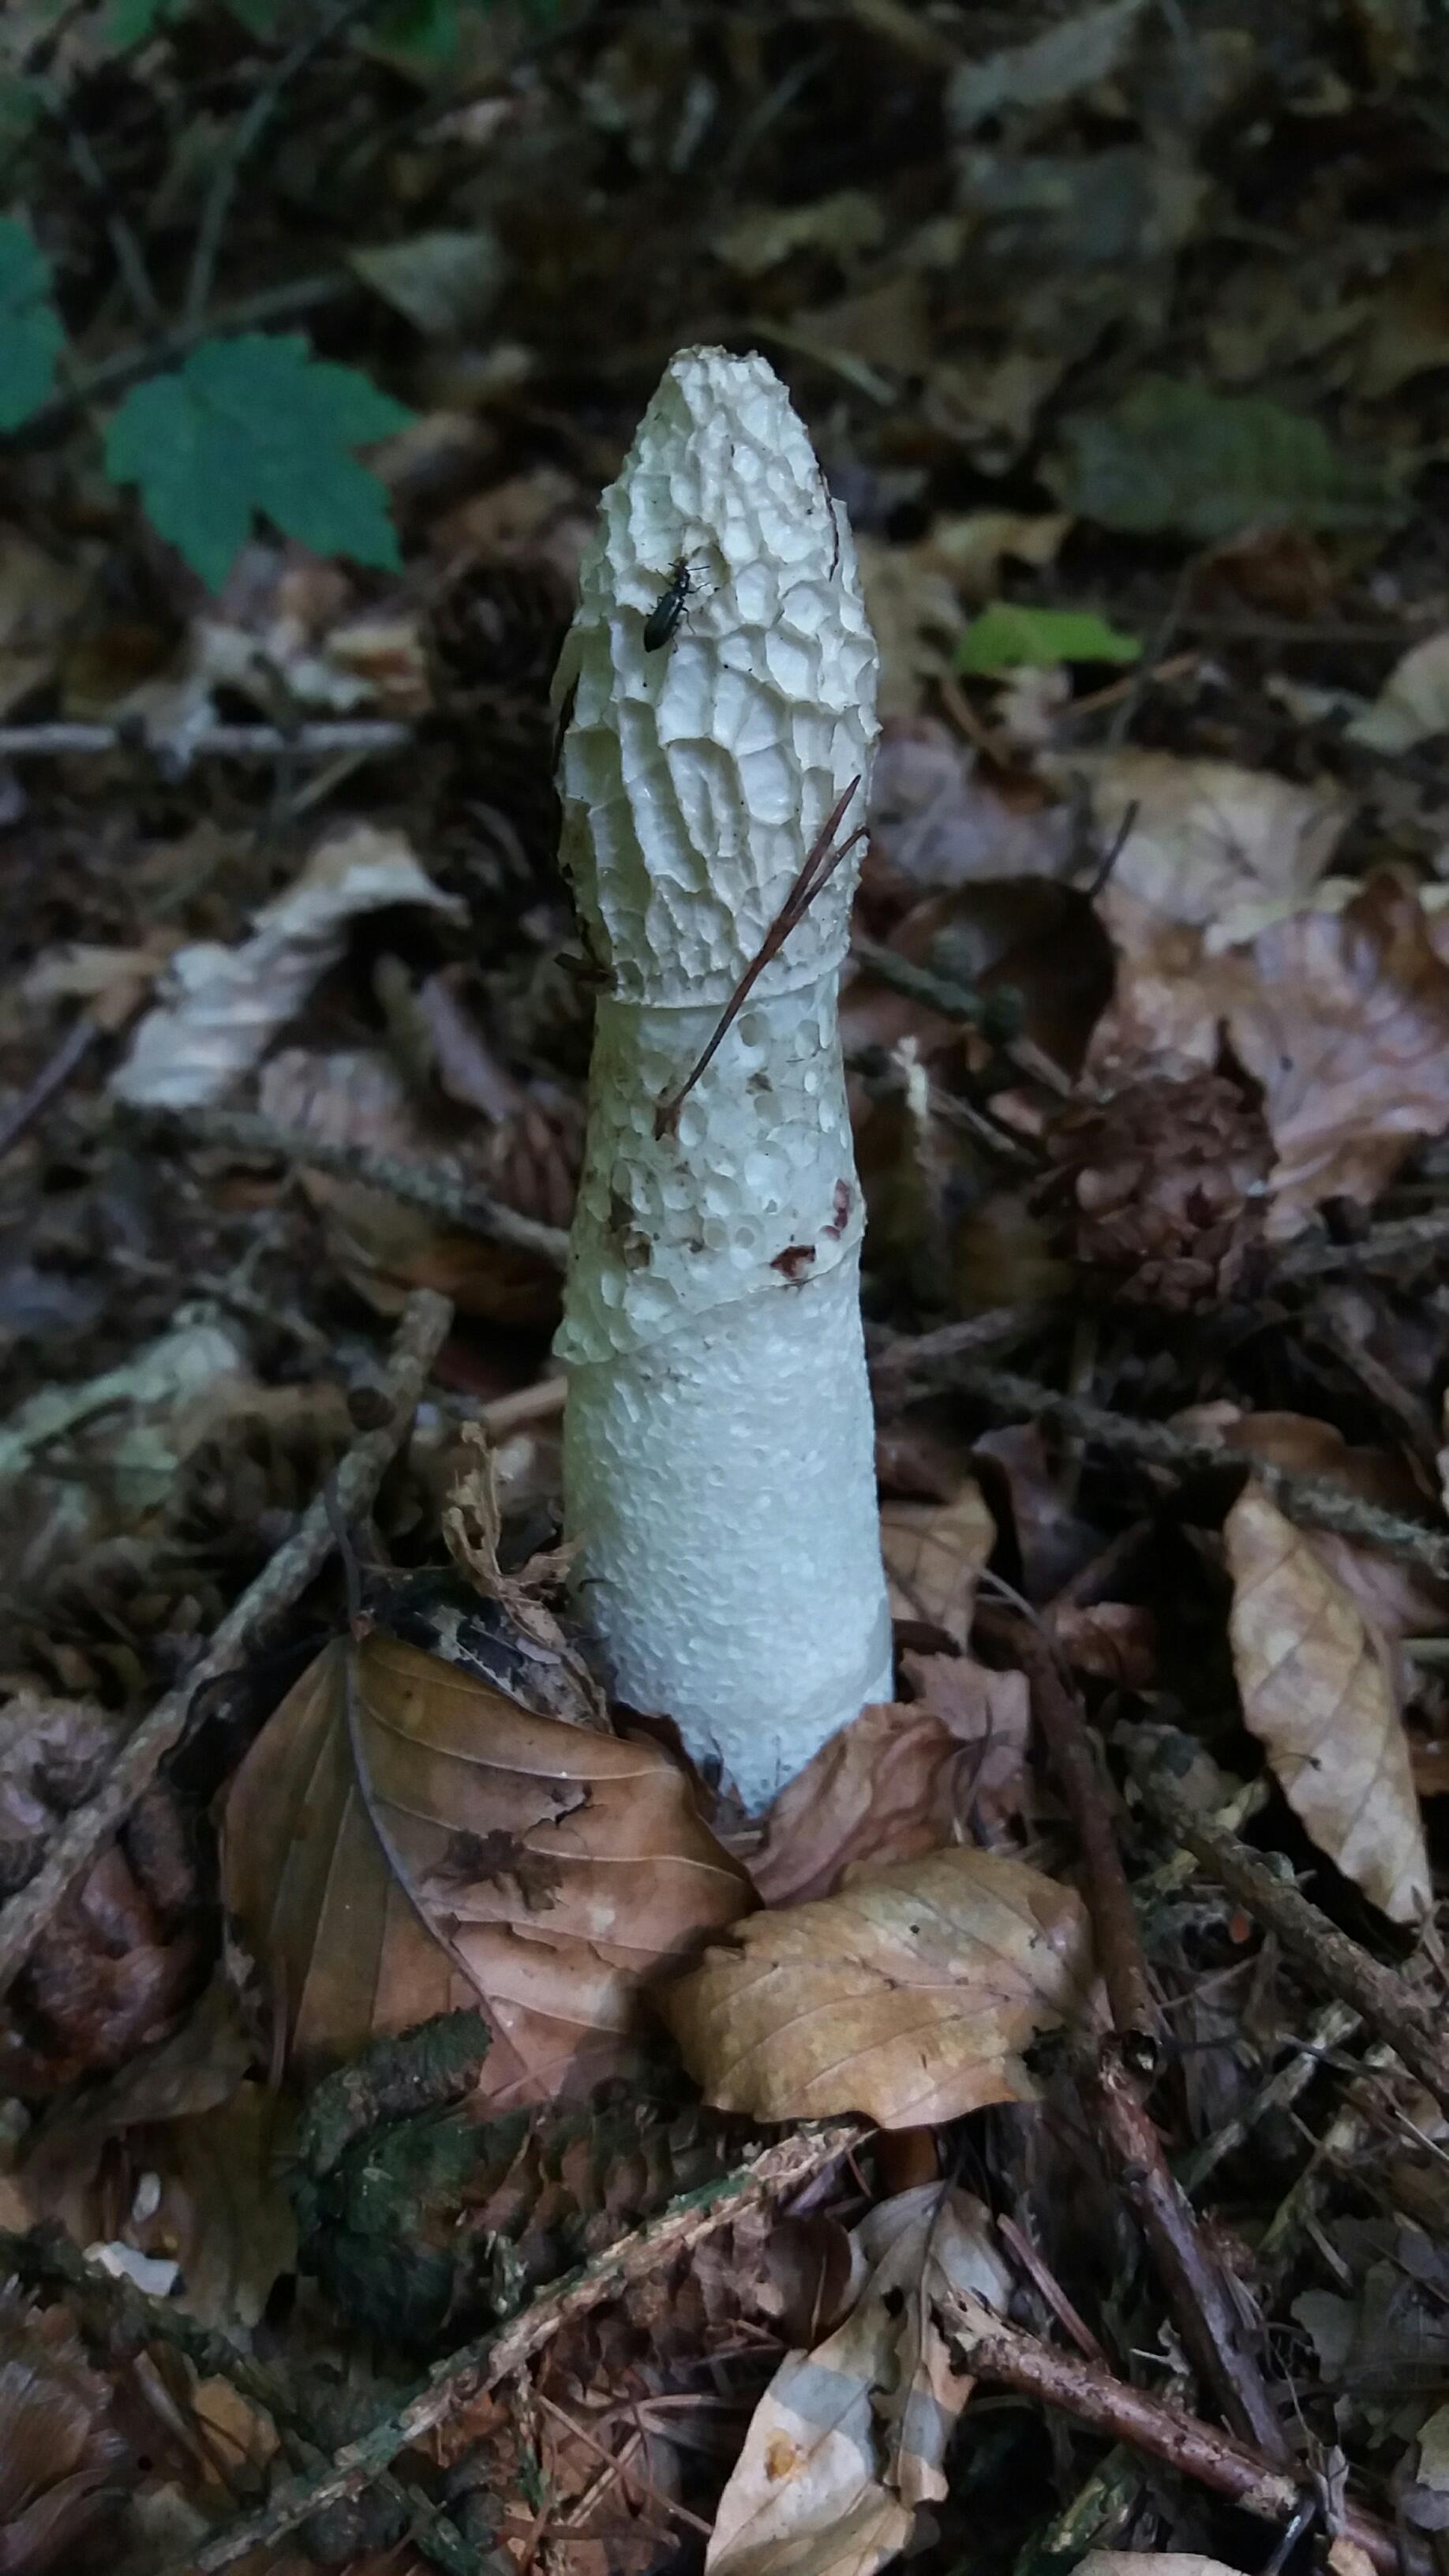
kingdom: Fungi
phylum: Basidiomycota
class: Agaricomycetes
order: Phallales
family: Phallaceae
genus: Phallus
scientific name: Phallus impudicus
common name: almindelig stinksvamp
